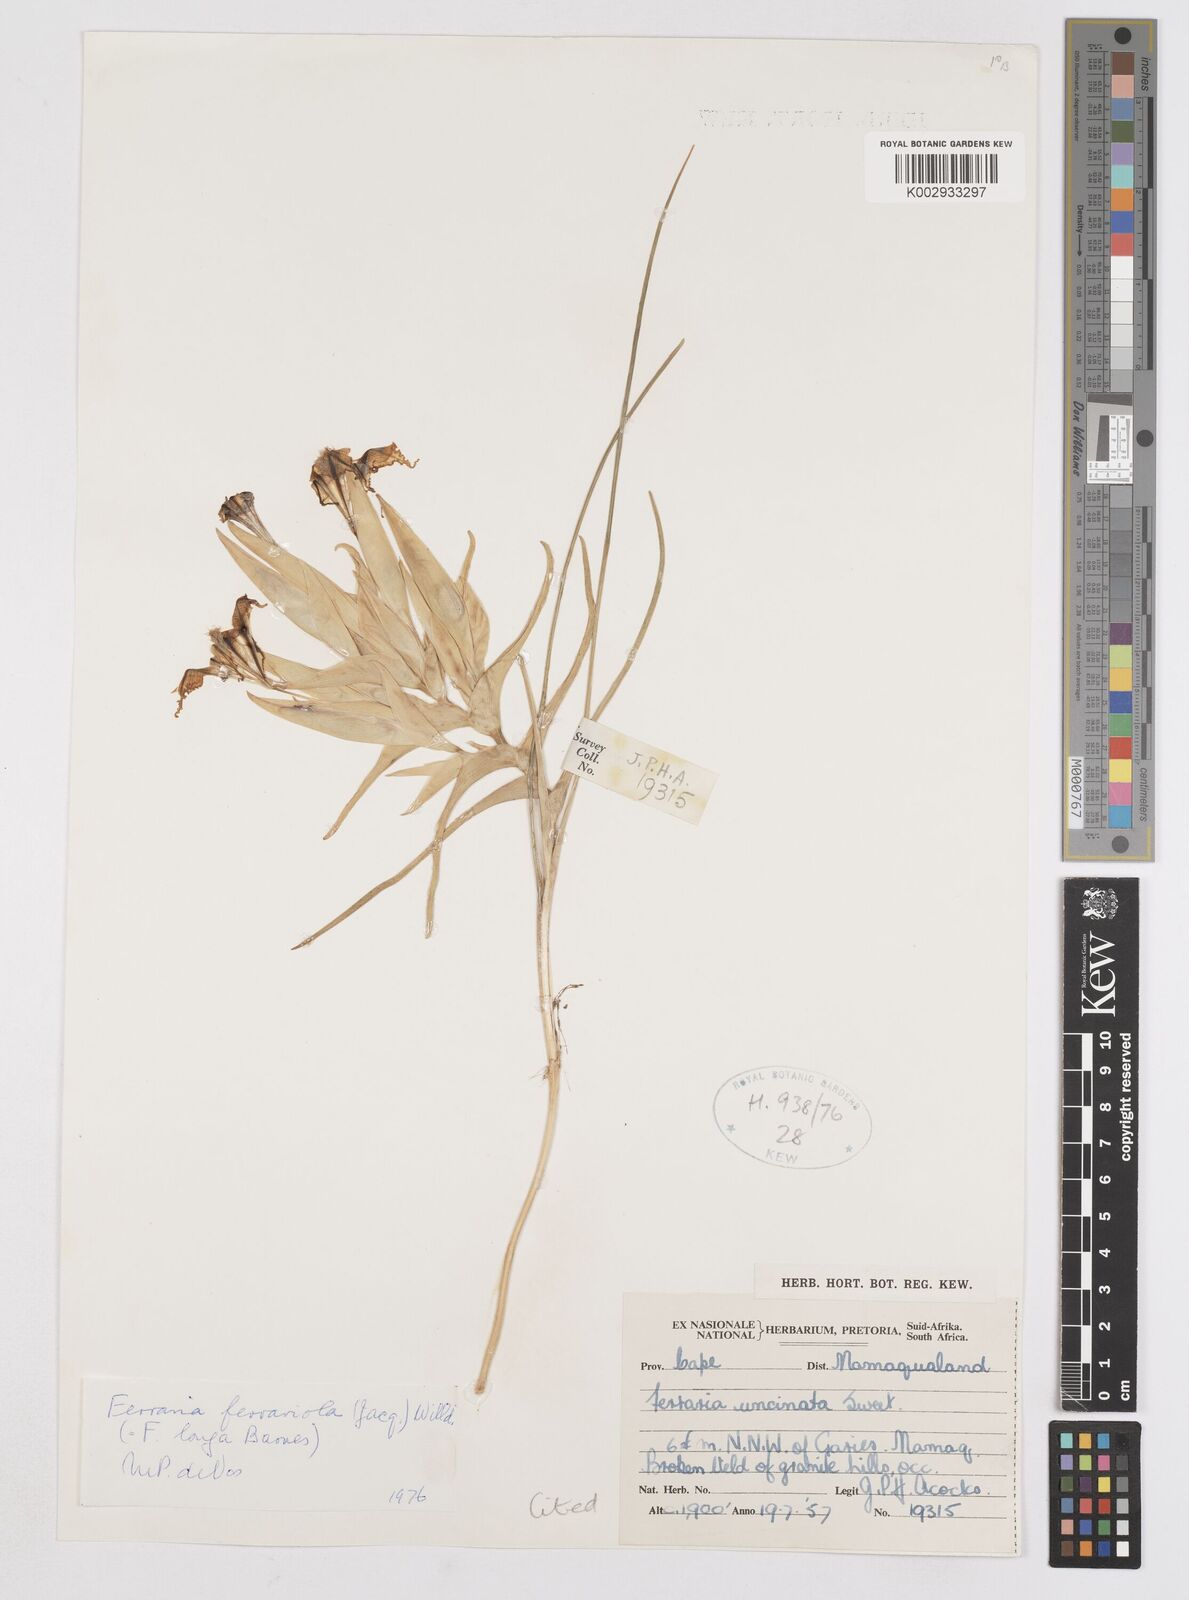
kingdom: Plantae
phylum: Tracheophyta
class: Liliopsida
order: Asparagales
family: Iridaceae
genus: Ferraria
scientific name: Ferraria ferrariola
